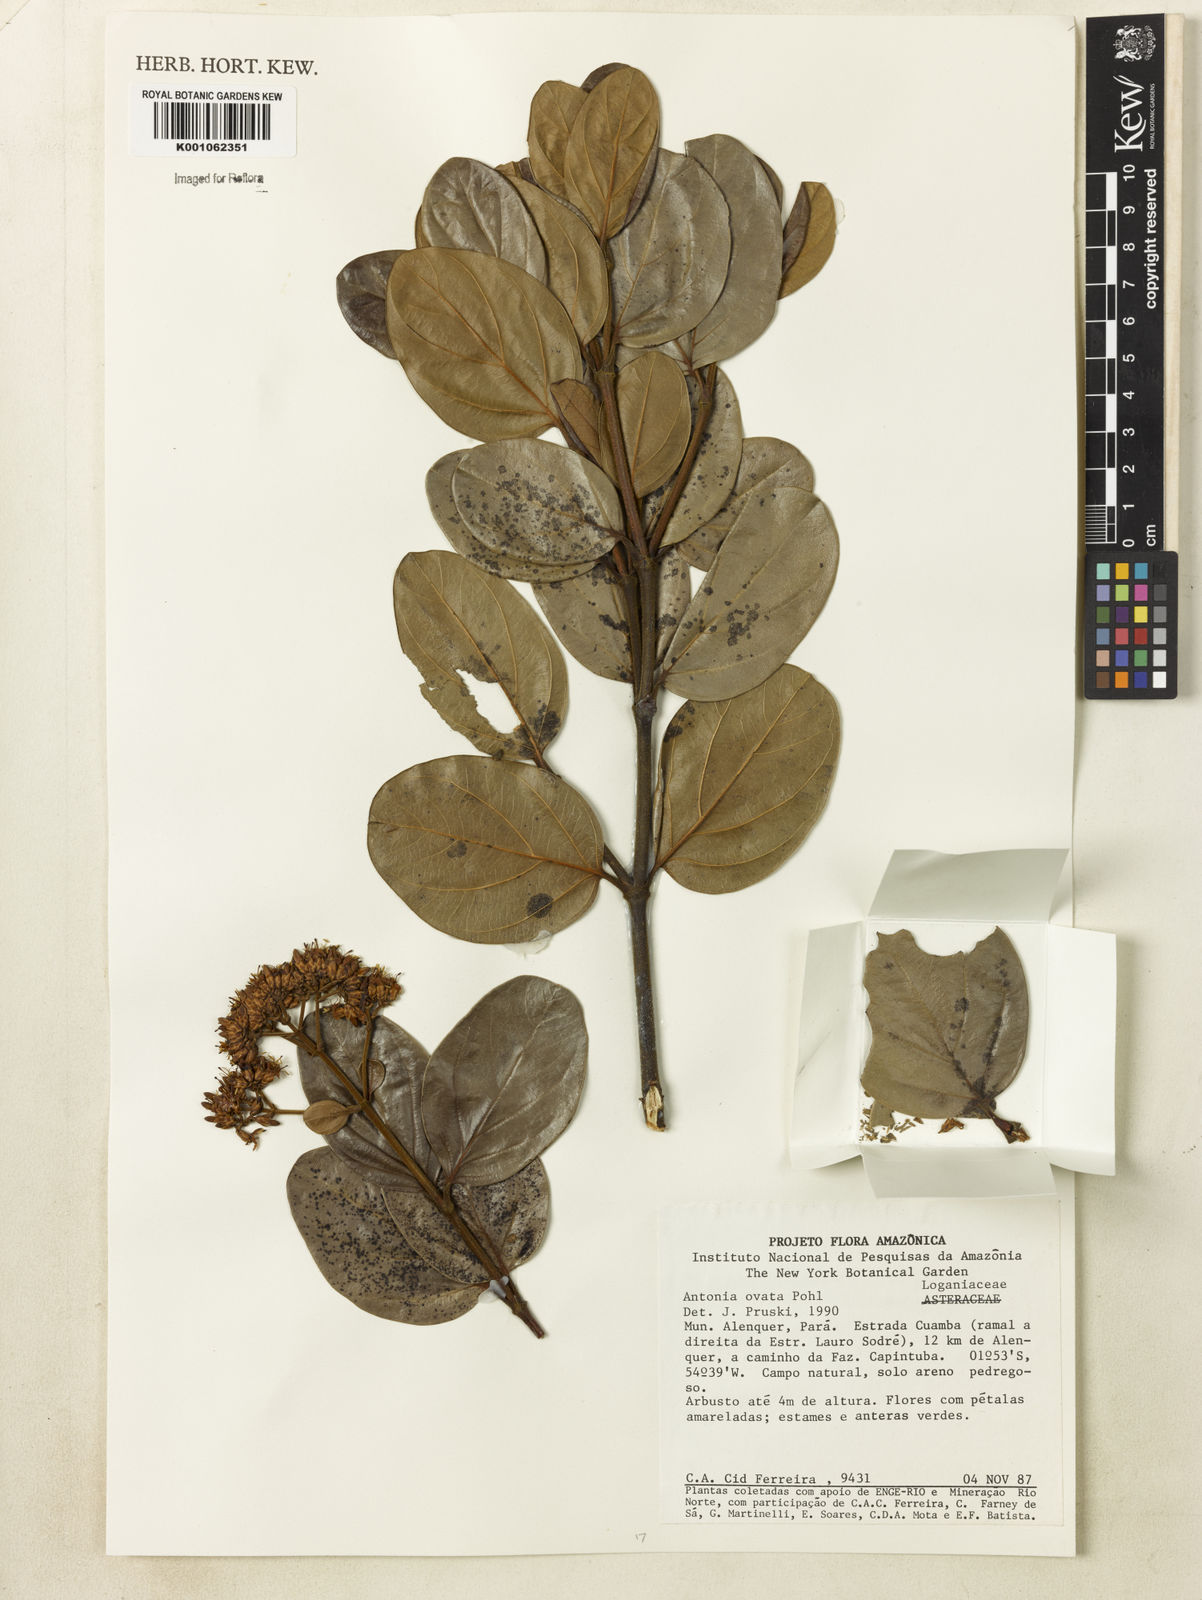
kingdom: Plantae
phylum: Tracheophyta
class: Magnoliopsida
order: Gentianales
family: Loganiaceae
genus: Antonia
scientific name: Antonia ovata
